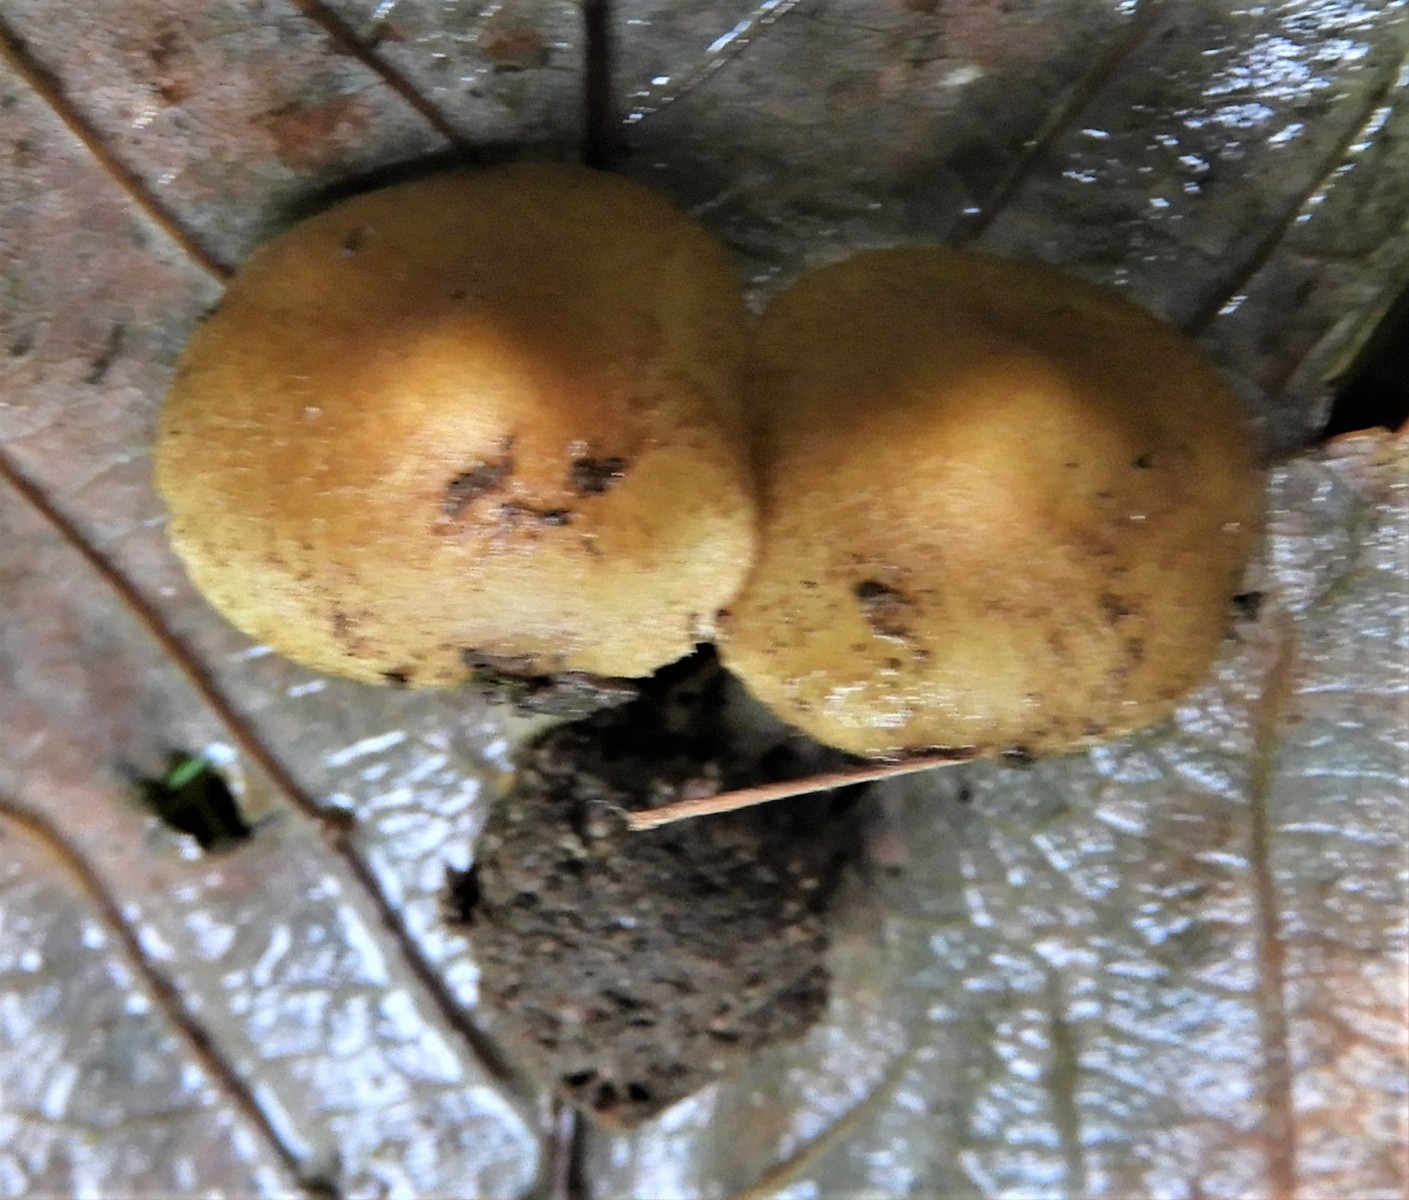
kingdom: Fungi
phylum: Basidiomycota
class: Agaricomycetes
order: Agaricales
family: Inocybaceae
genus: Inocybe
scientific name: Inocybe
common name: trævlhat
